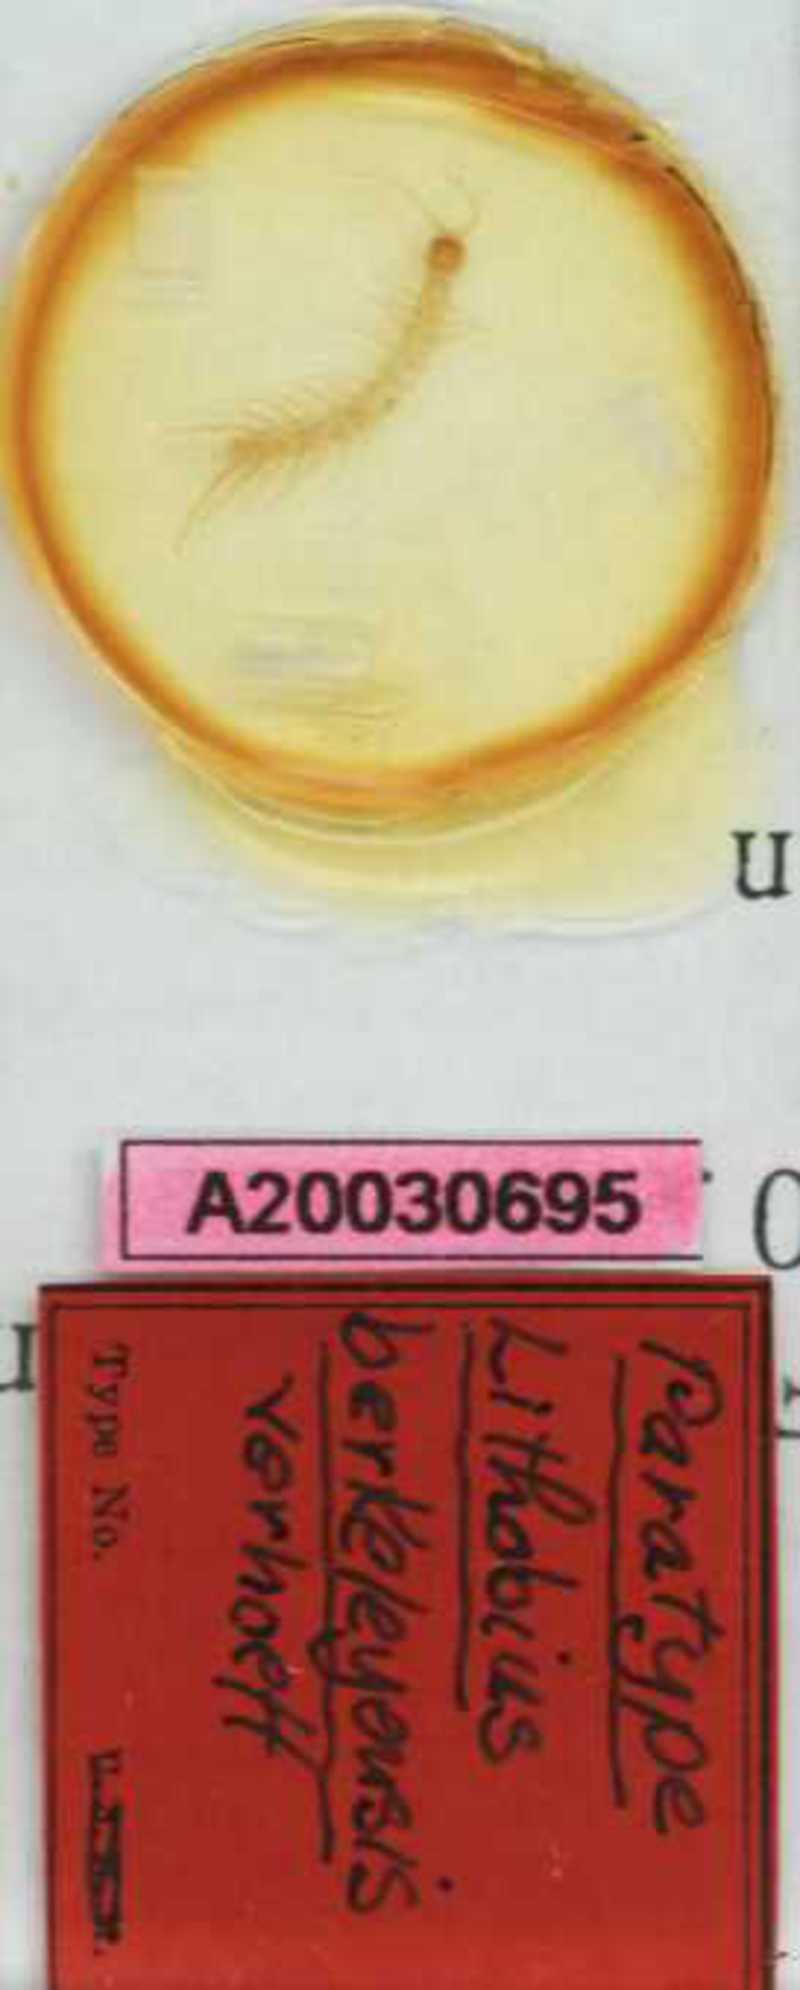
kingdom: Animalia
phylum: Arthropoda
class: Chilopoda
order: Lithobiomorpha
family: Lithobiidae
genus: Lithobius
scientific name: Lithobius
